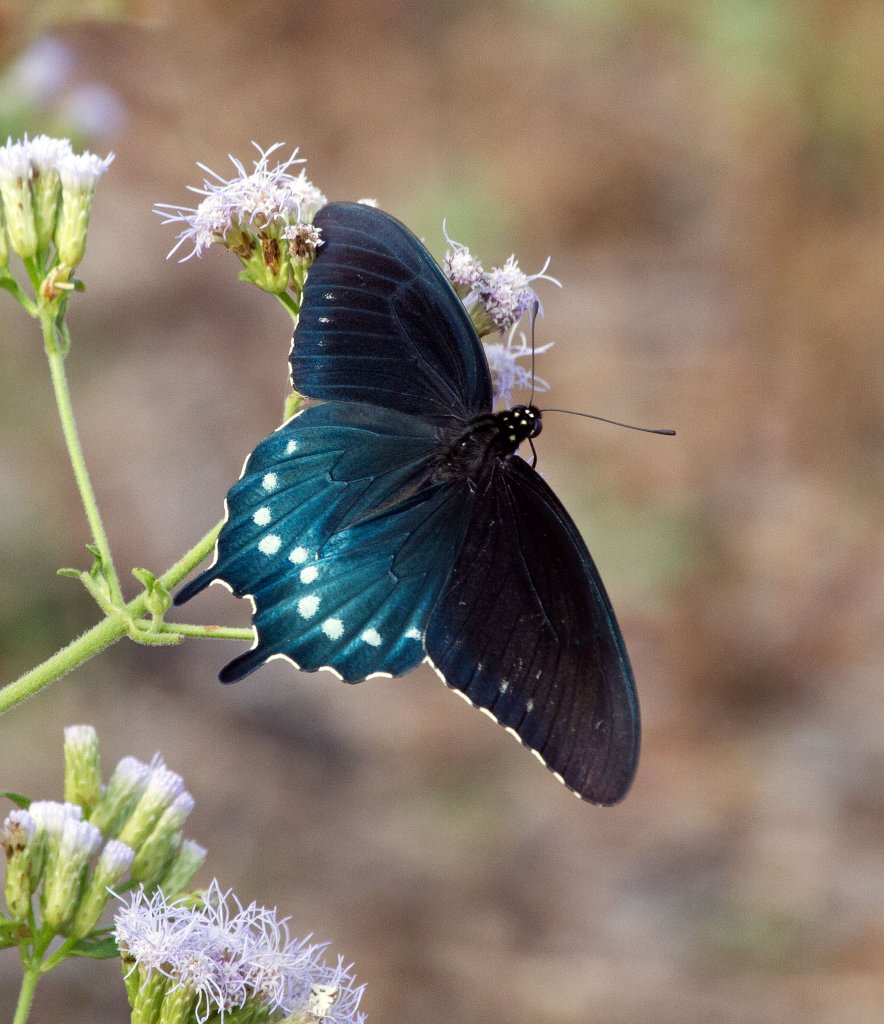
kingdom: Animalia
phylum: Arthropoda
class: Insecta
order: Lepidoptera
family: Papilionidae
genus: Battus
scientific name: Battus philenor
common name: Pipevine Swallowtail
